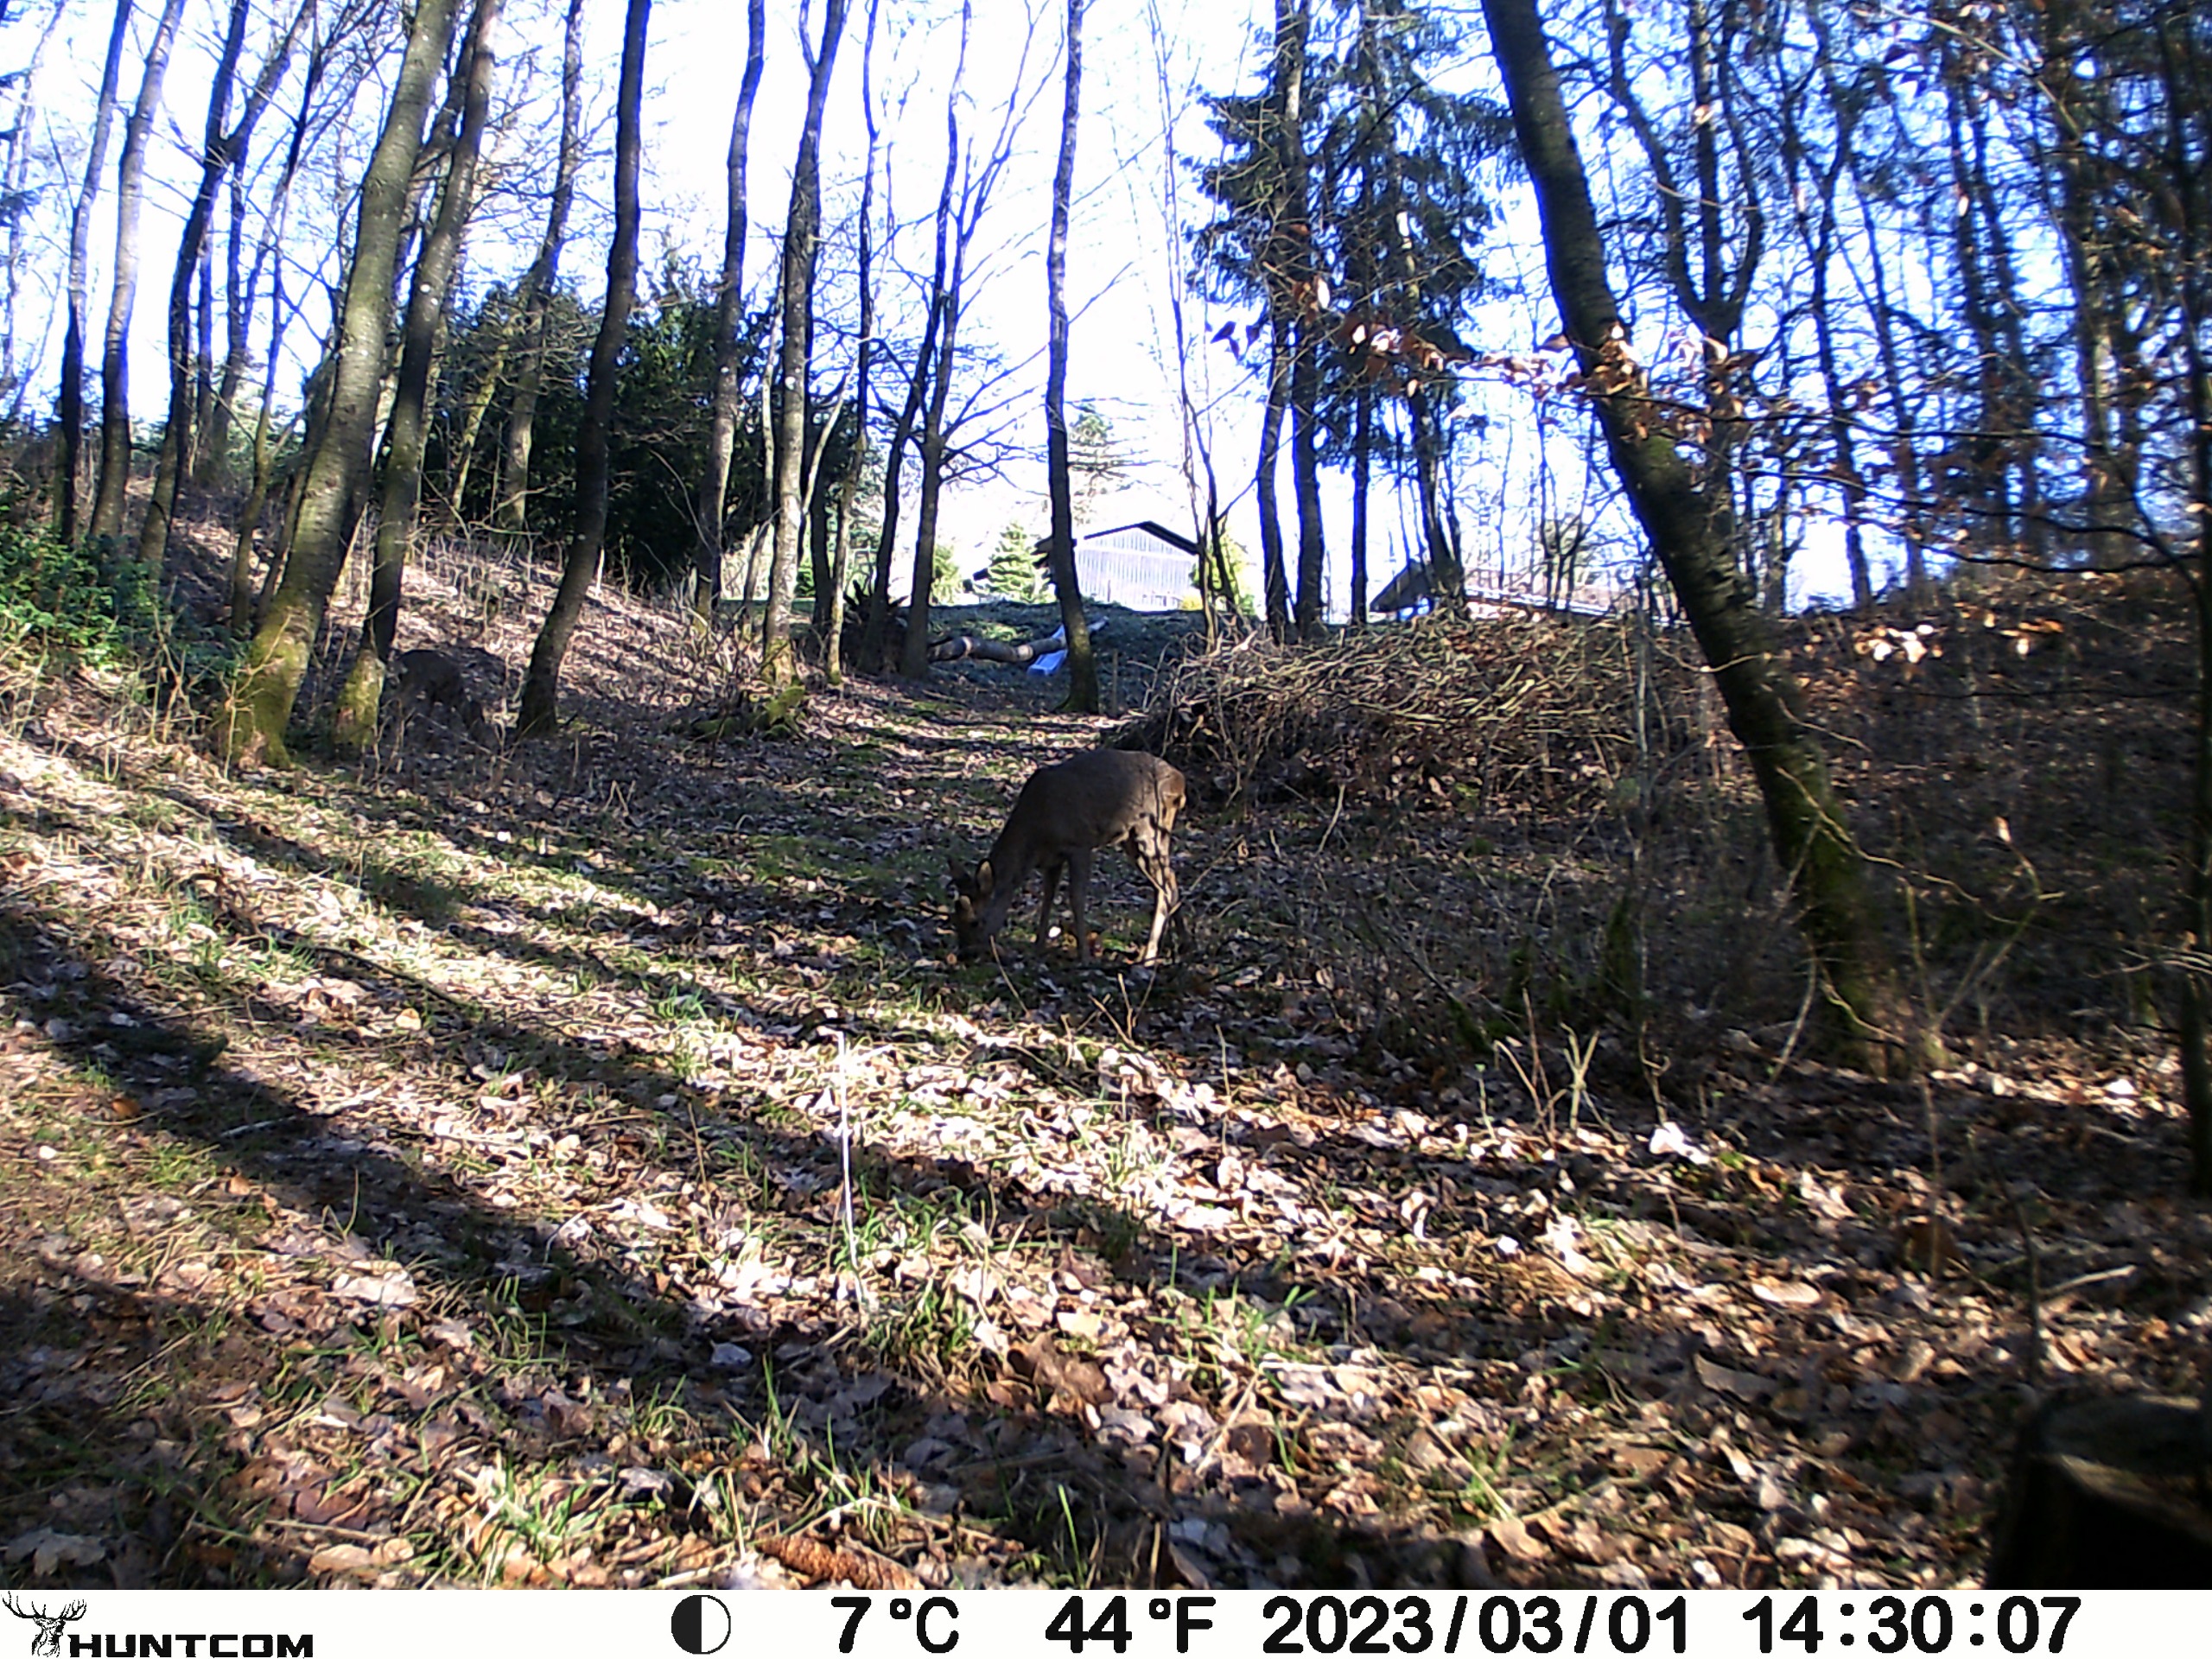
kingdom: Animalia
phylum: Chordata
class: Mammalia
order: Artiodactyla
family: Cervidae
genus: Capreolus
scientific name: Capreolus capreolus
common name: Rådyr
